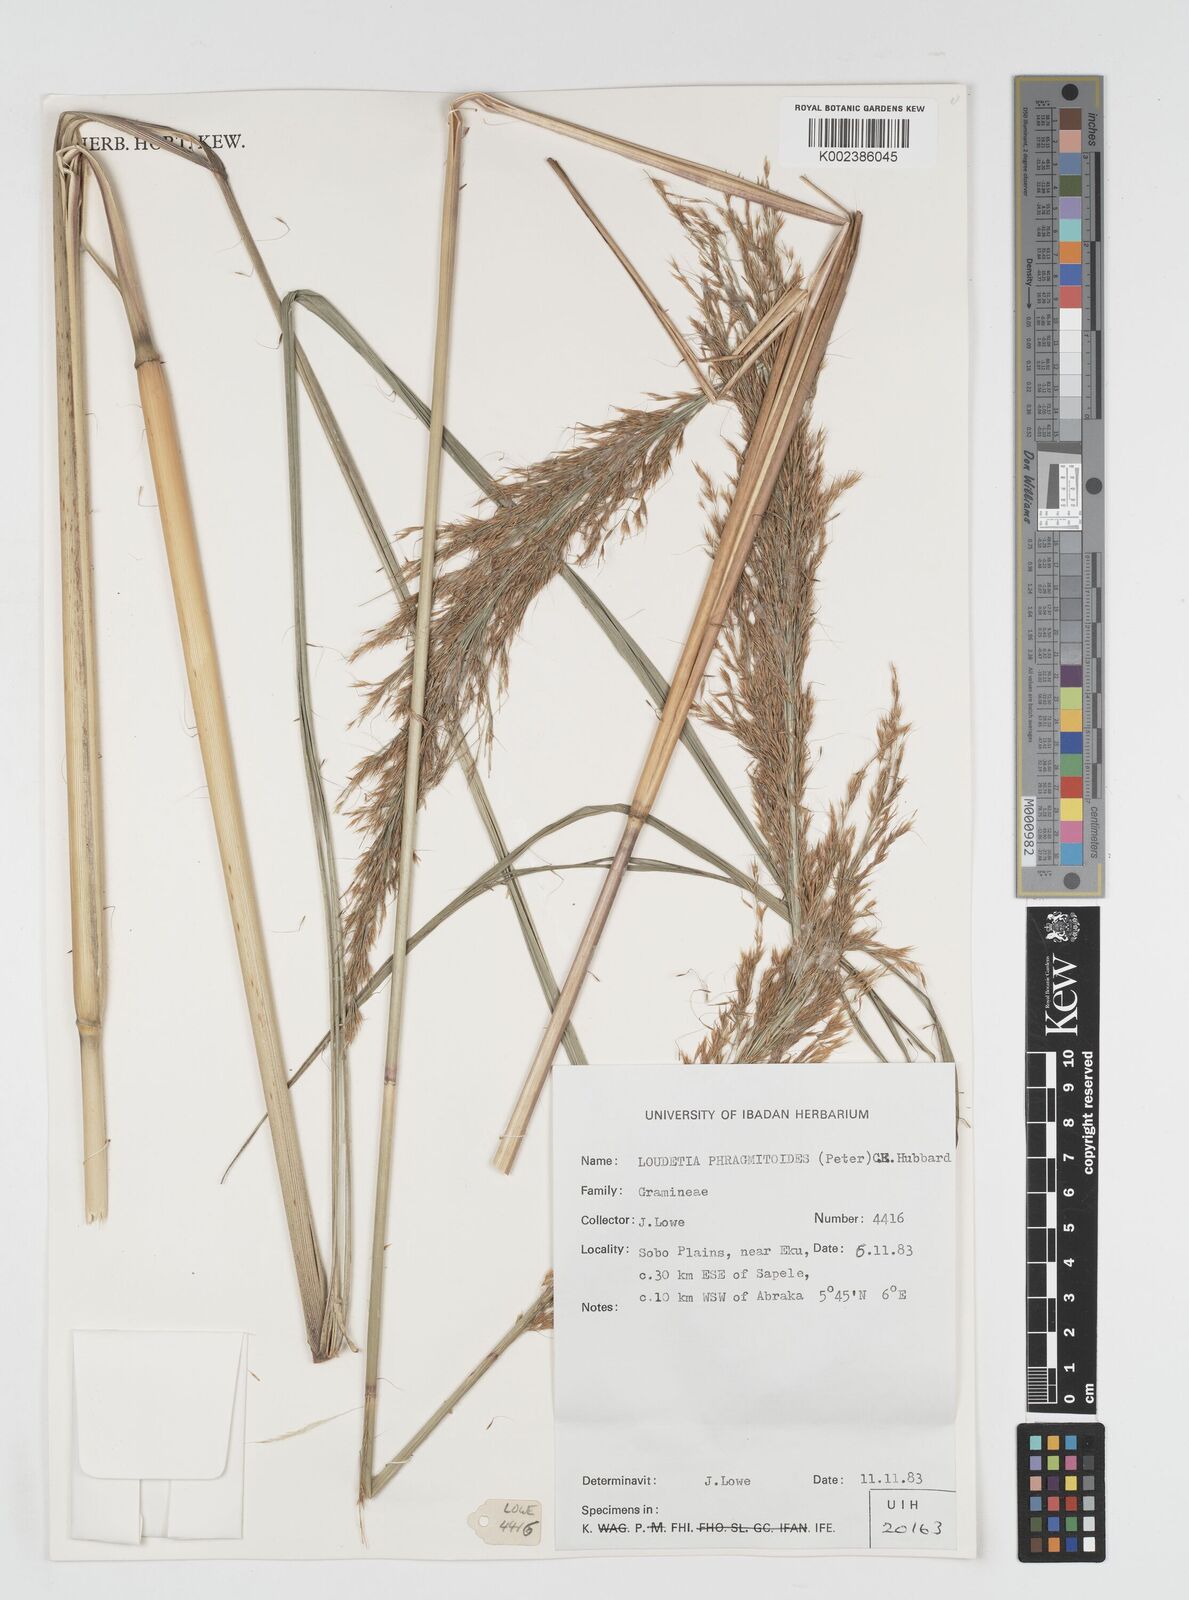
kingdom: Plantae
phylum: Tracheophyta
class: Liliopsida
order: Poales
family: Poaceae
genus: Loudetia
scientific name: Loudetia phragmitoides
